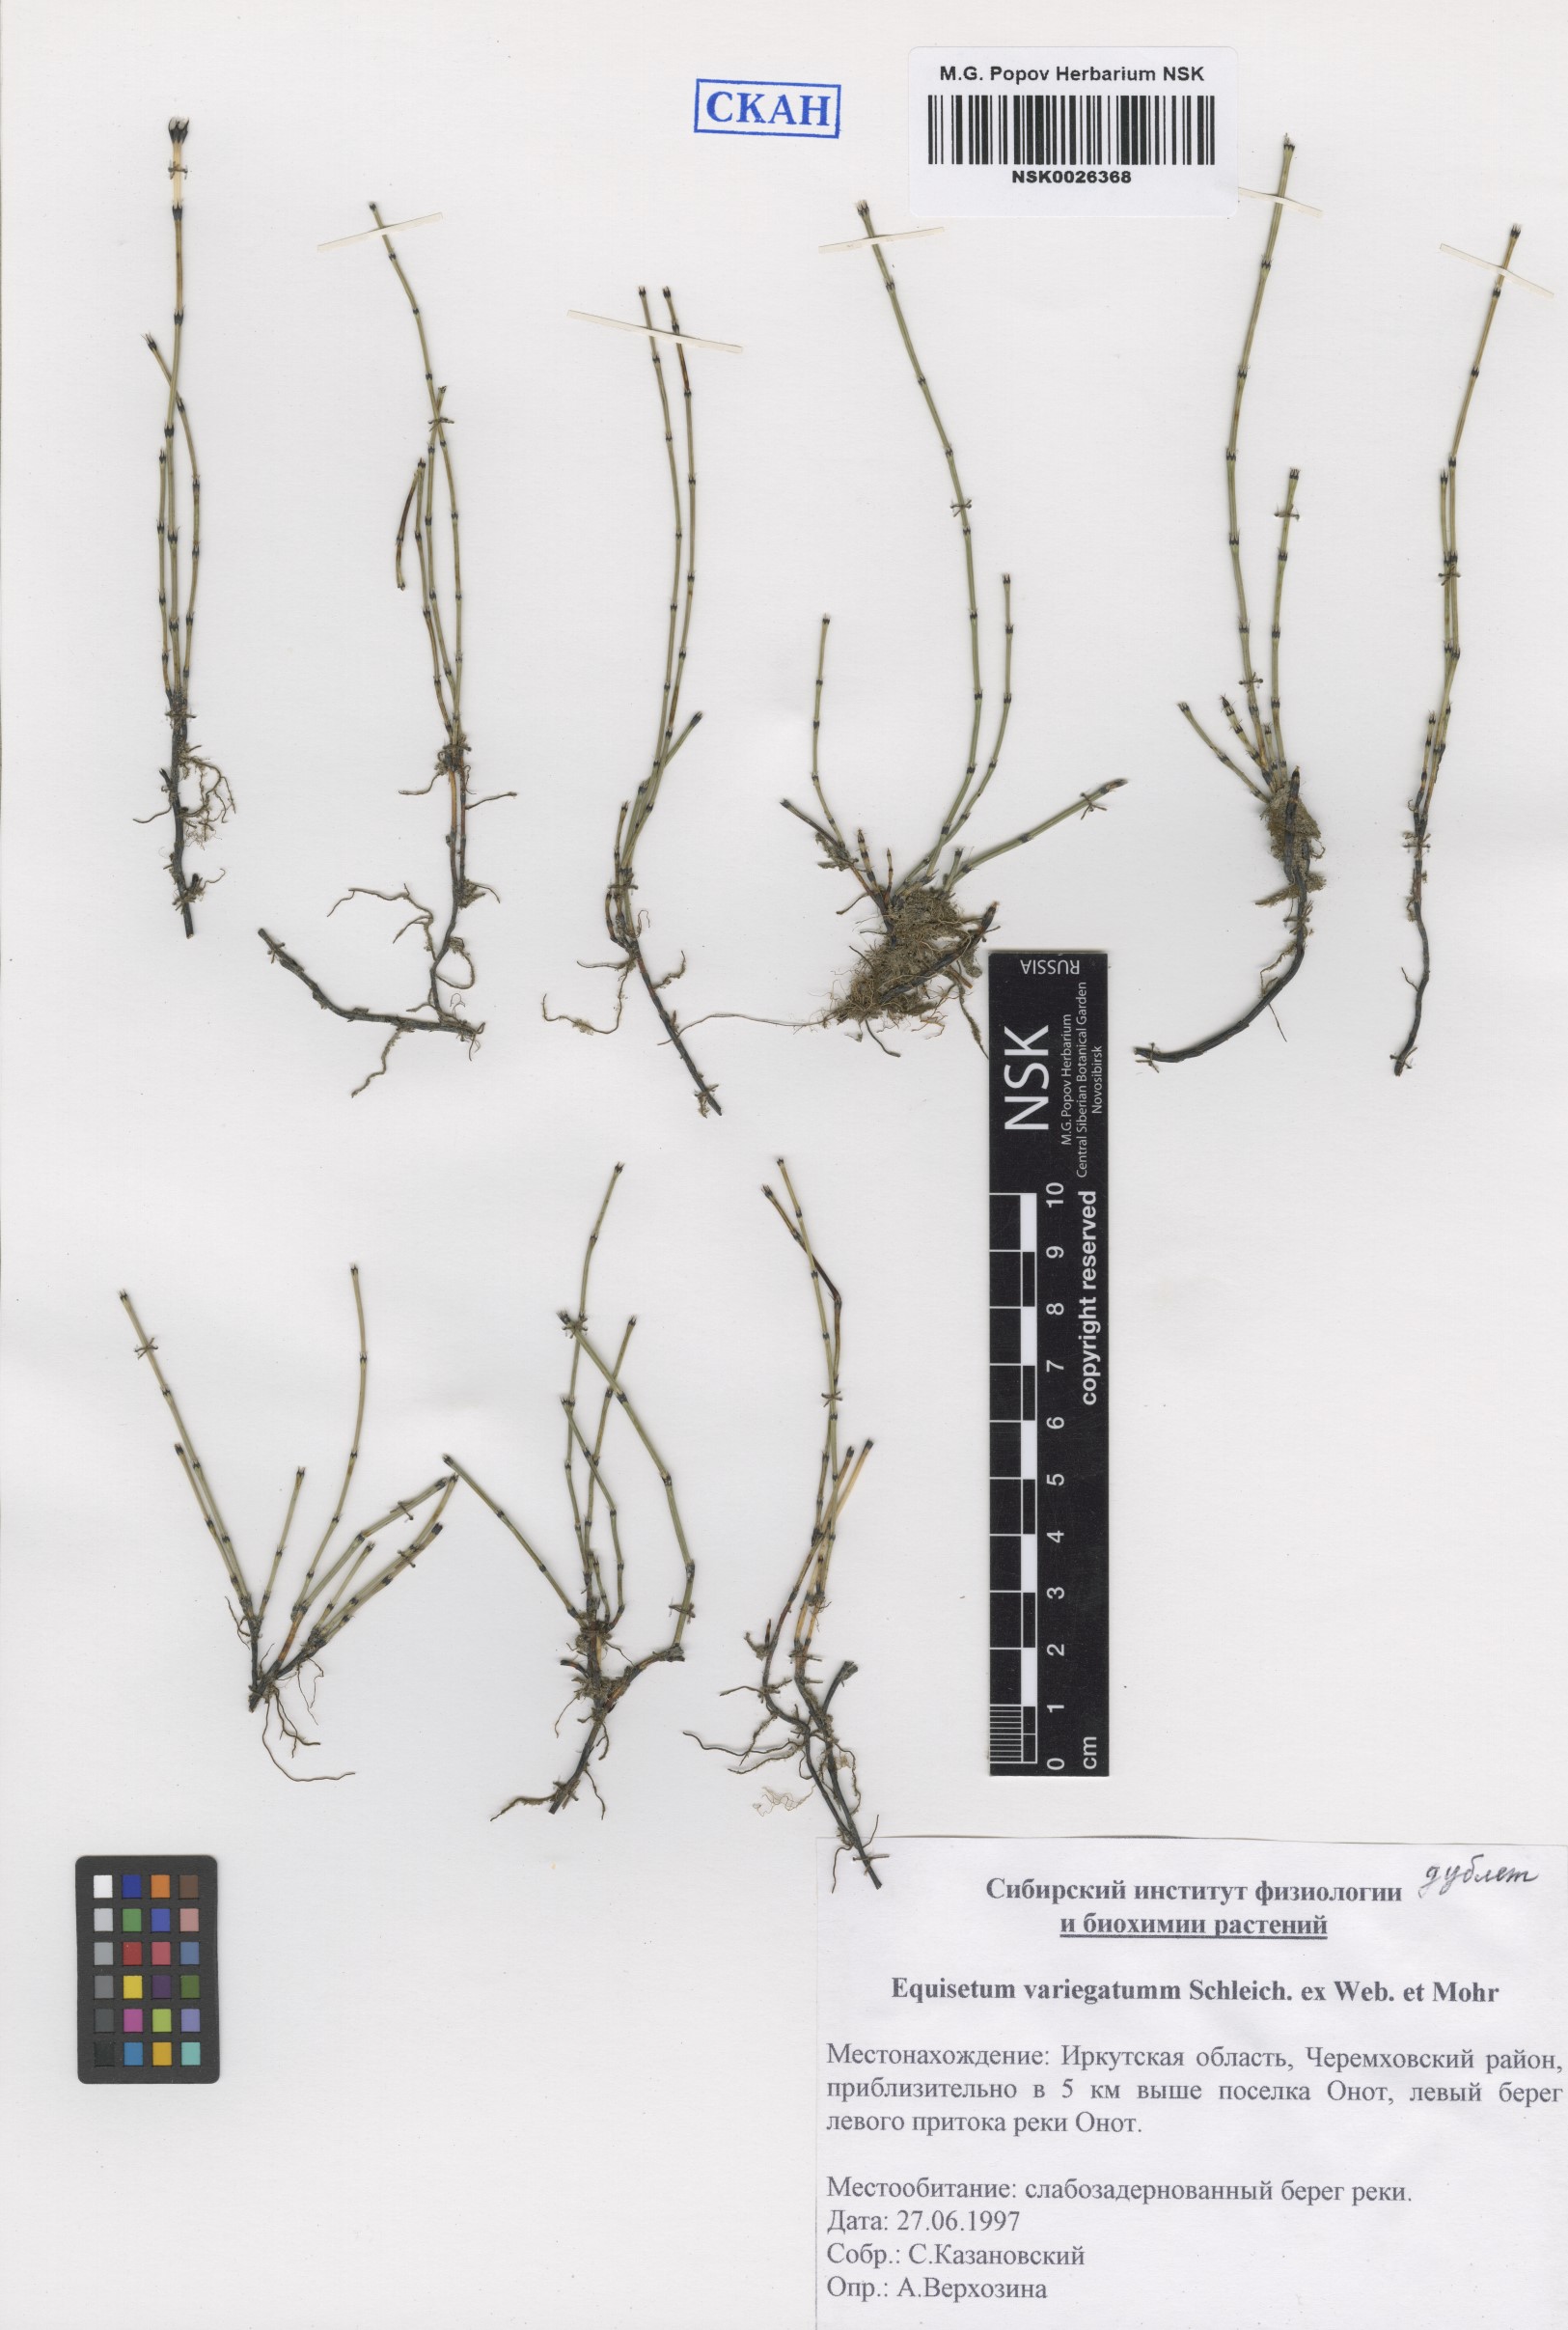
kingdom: Plantae
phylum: Tracheophyta
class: Polypodiopsida
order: Equisetales
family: Equisetaceae
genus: Equisetum
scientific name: Equisetum variegatum
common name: Variegated horsetail
